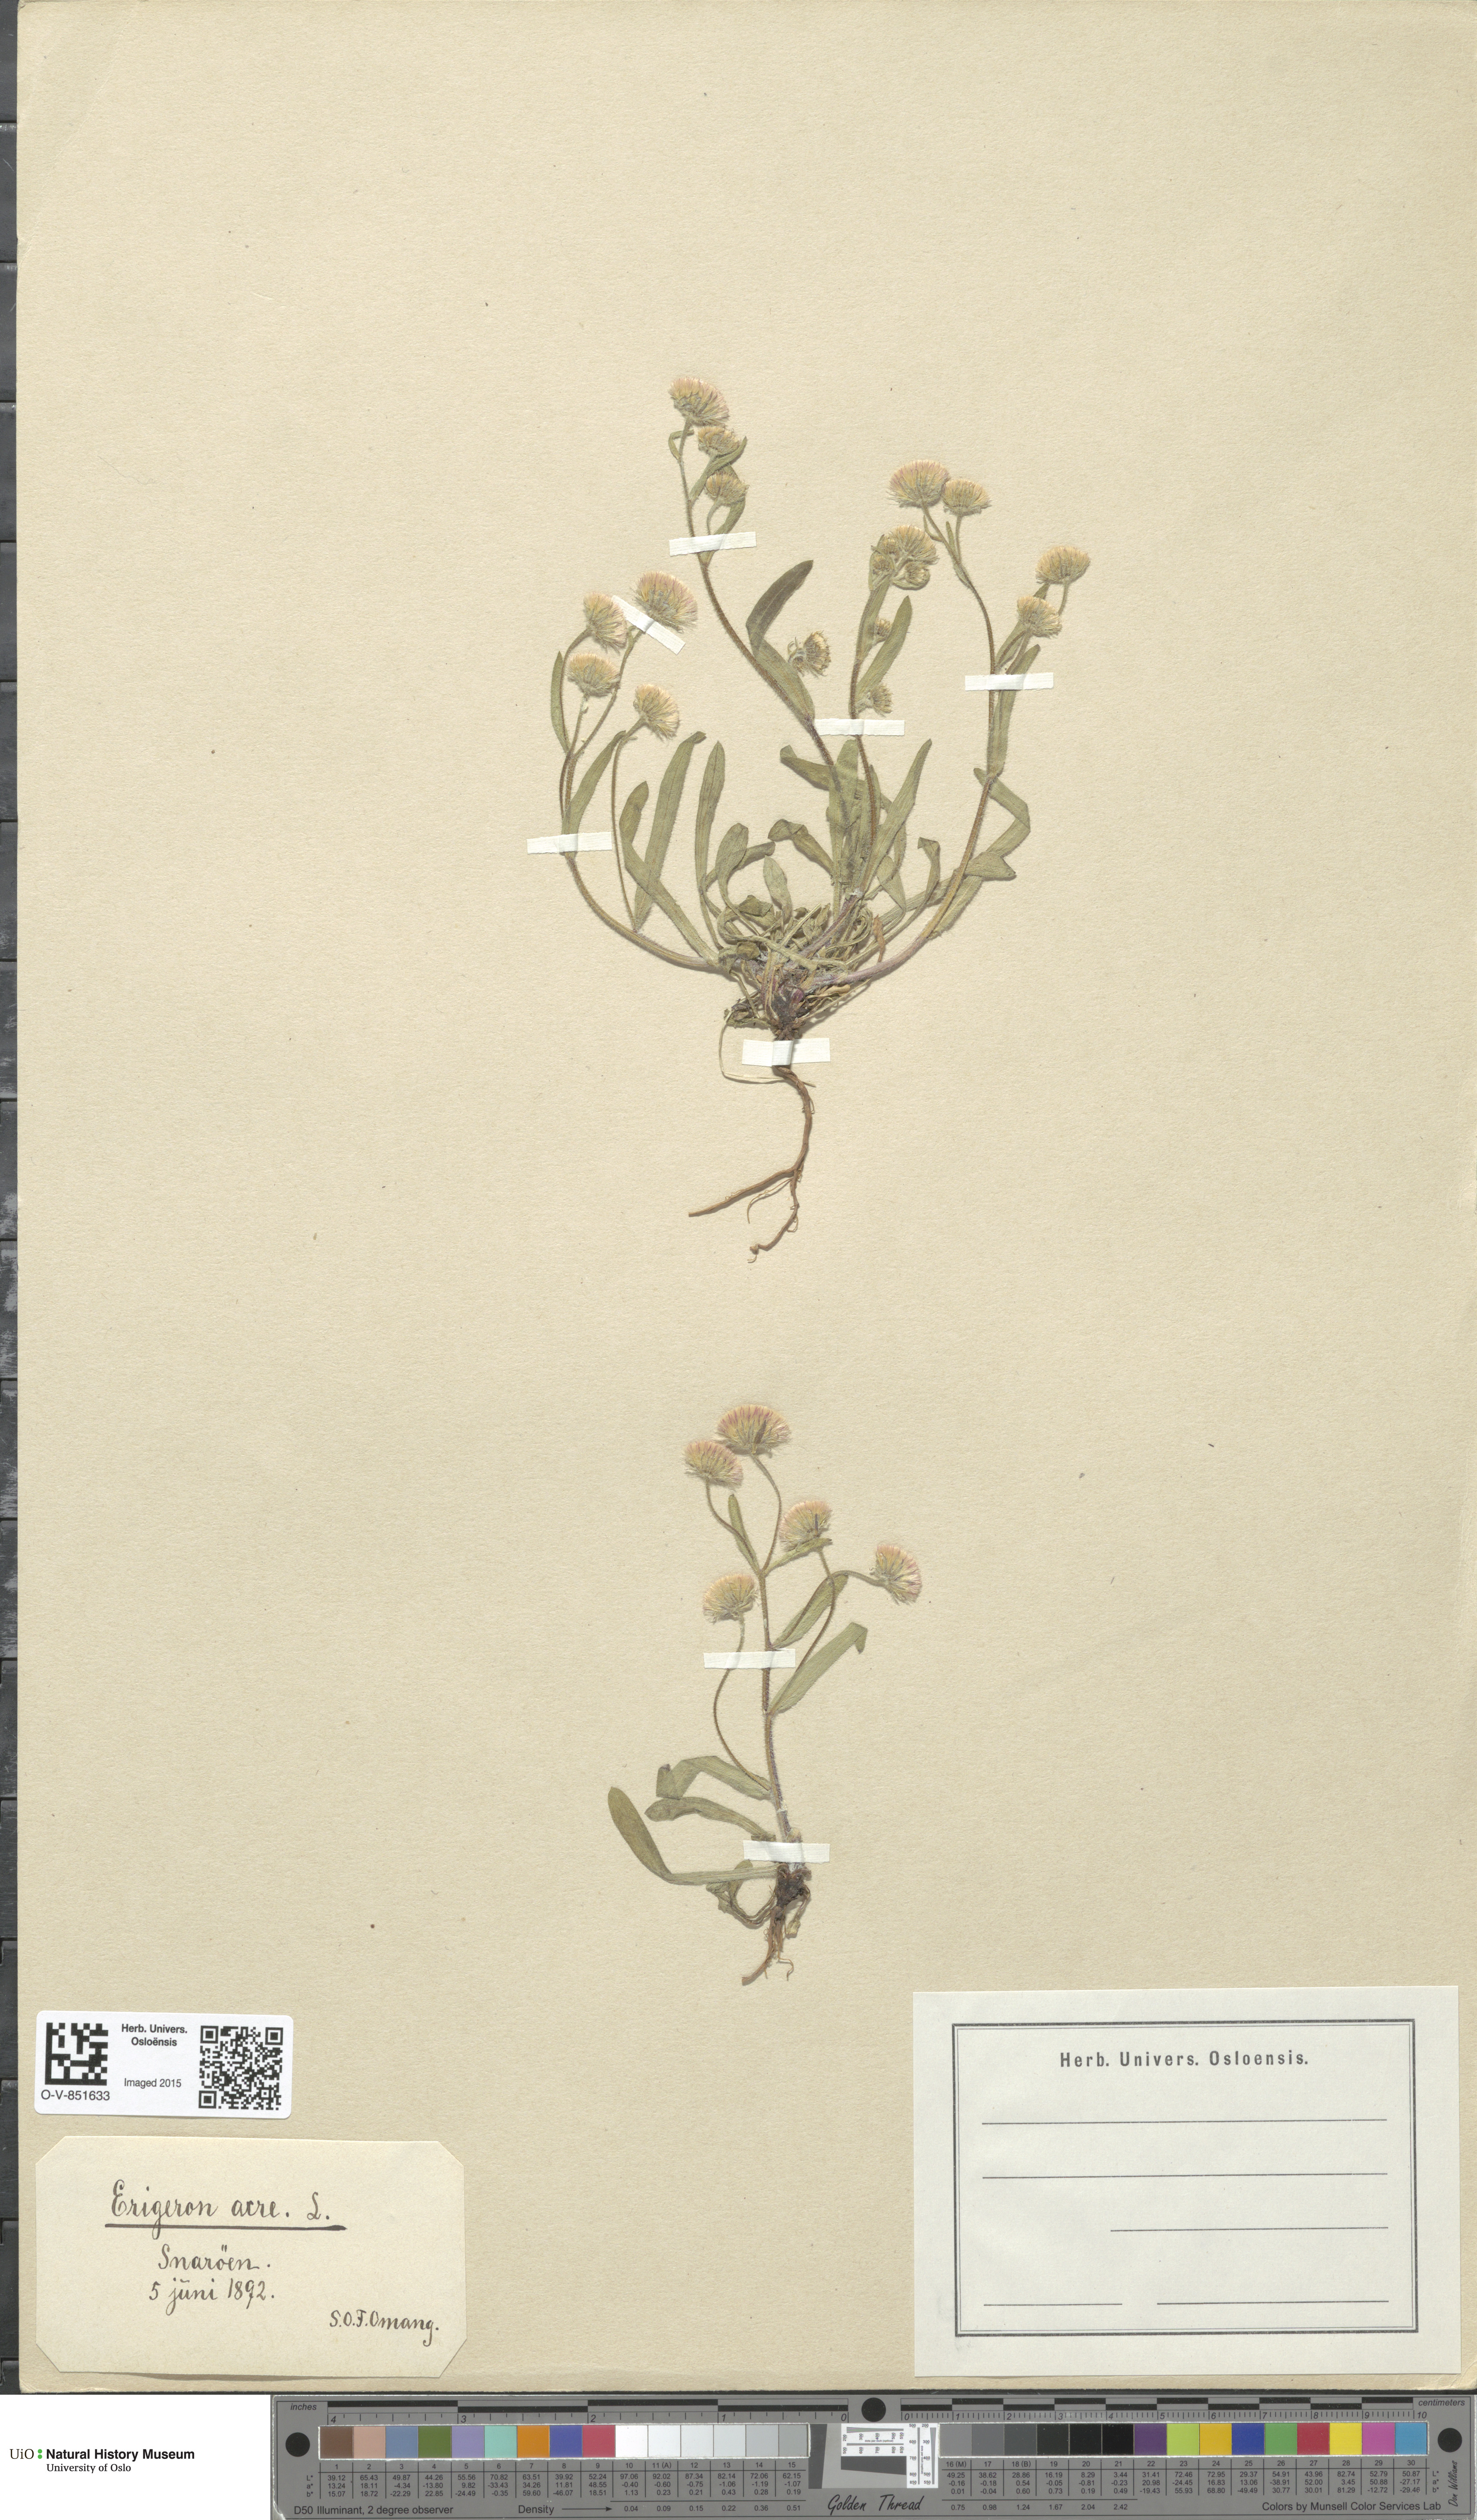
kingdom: Plantae
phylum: Tracheophyta
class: Magnoliopsida
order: Asterales
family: Asteraceae
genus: Erigeron
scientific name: Erigeron acris
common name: Blue fleabane
